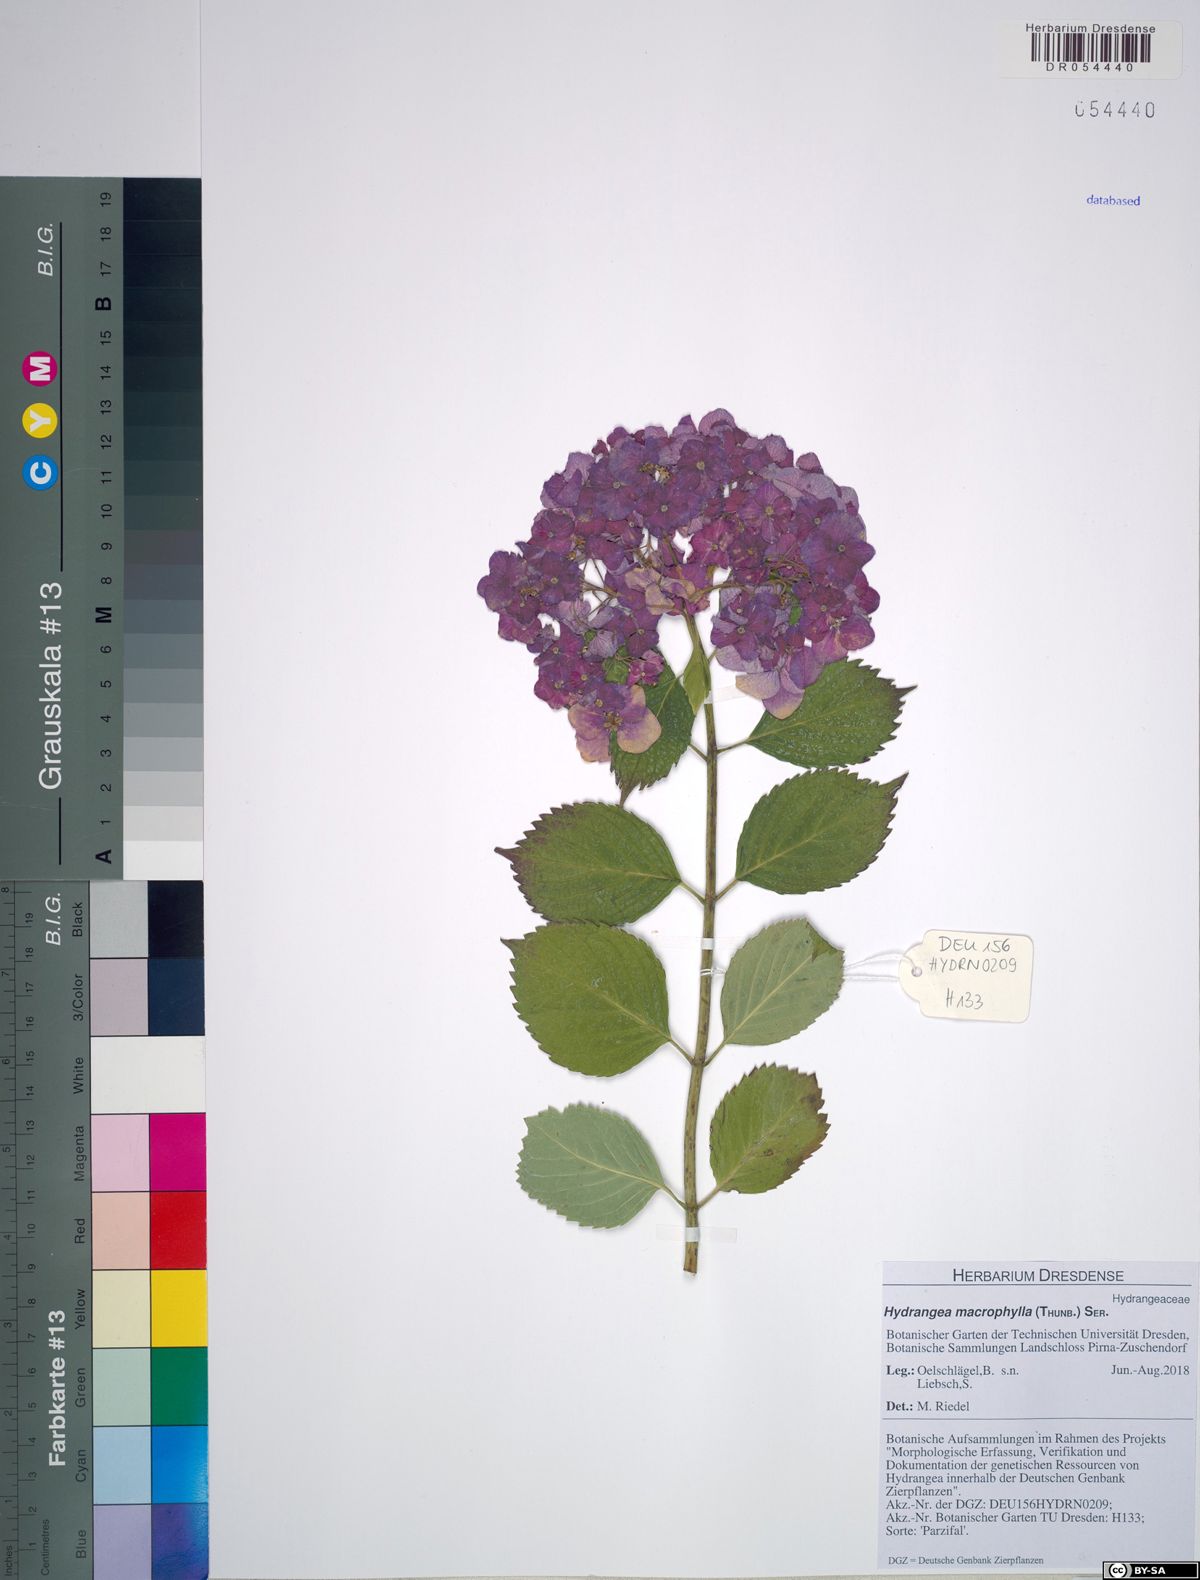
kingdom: Plantae
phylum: Tracheophyta
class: Magnoliopsida
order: Cornales
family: Hydrangeaceae
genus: Hydrangea
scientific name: Hydrangea macrophylla
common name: Hydrangea
